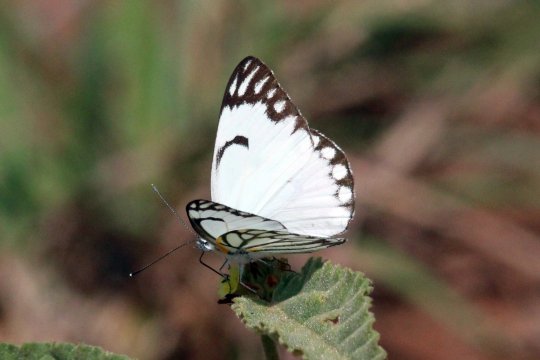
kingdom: Animalia
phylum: Arthropoda
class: Insecta
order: Lepidoptera
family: Pieridae
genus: Belenois
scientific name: Belenois aurota
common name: Pioneer White
